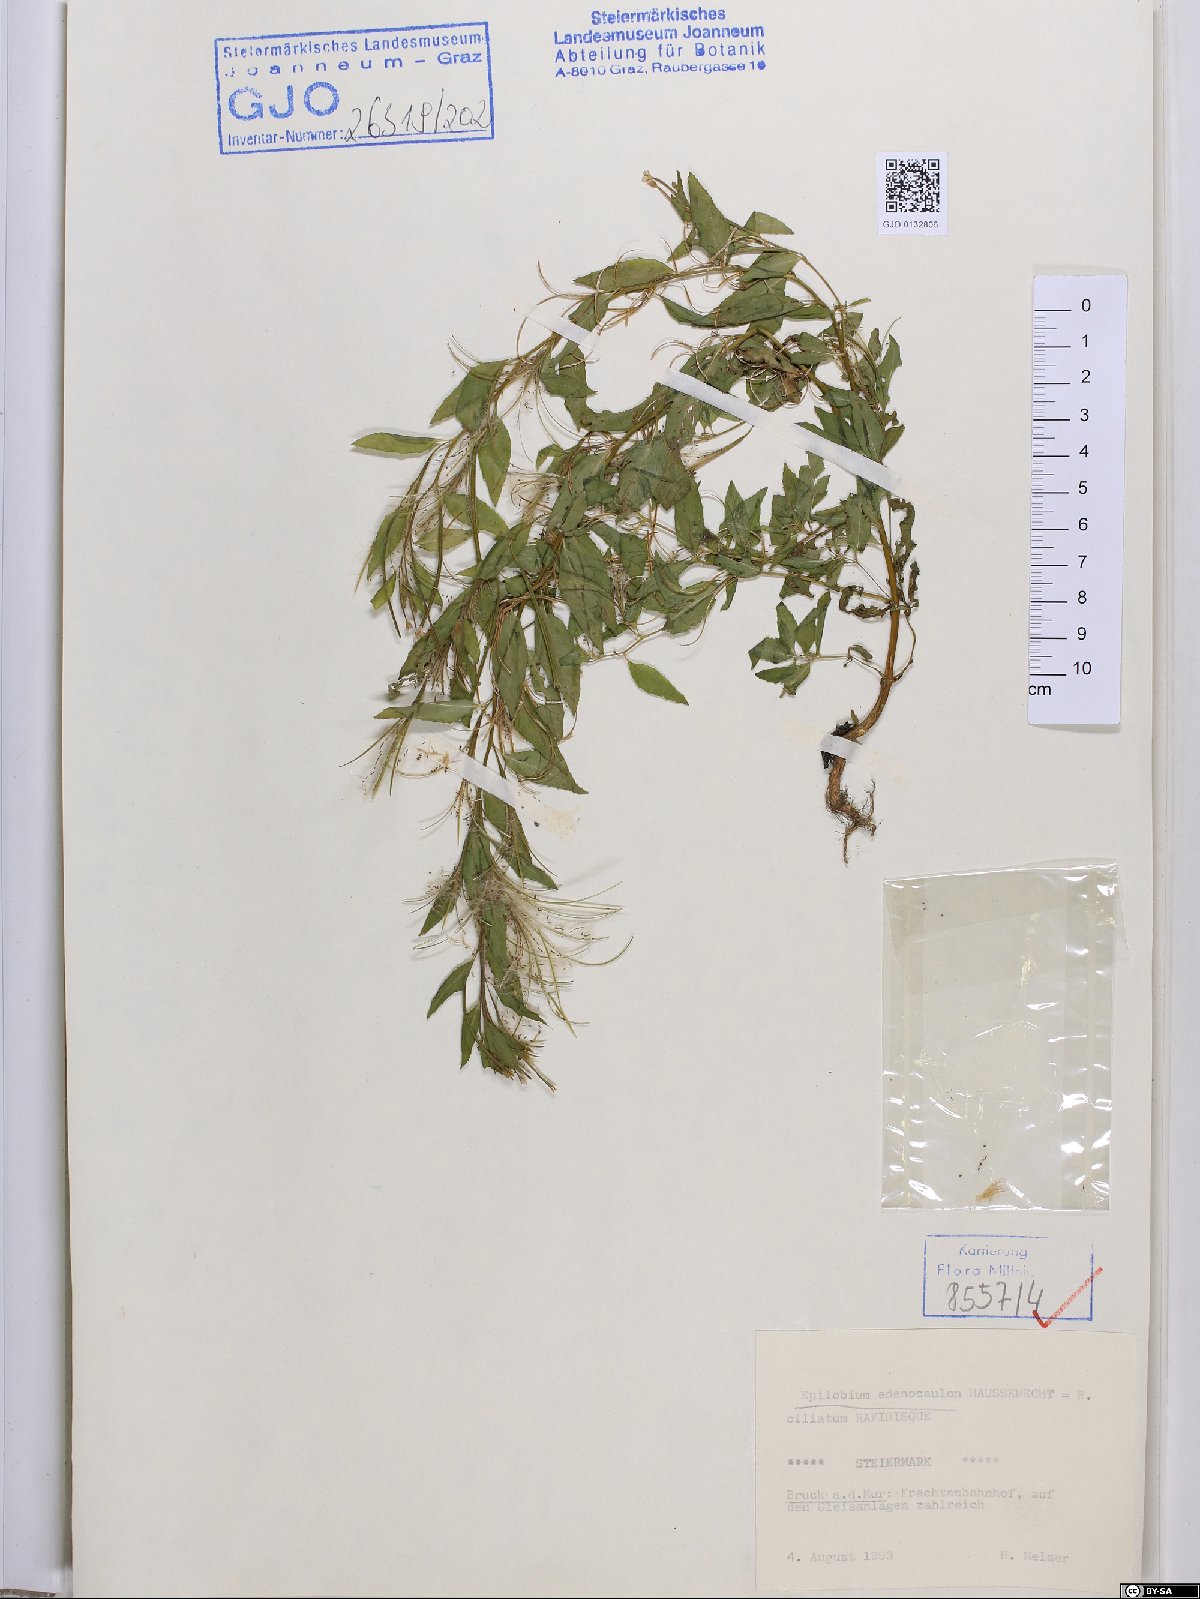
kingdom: Plantae
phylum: Tracheophyta
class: Magnoliopsida
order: Myrtales
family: Onagraceae
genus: Epilobium
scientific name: Epilobium ciliatum
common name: American willowherb
